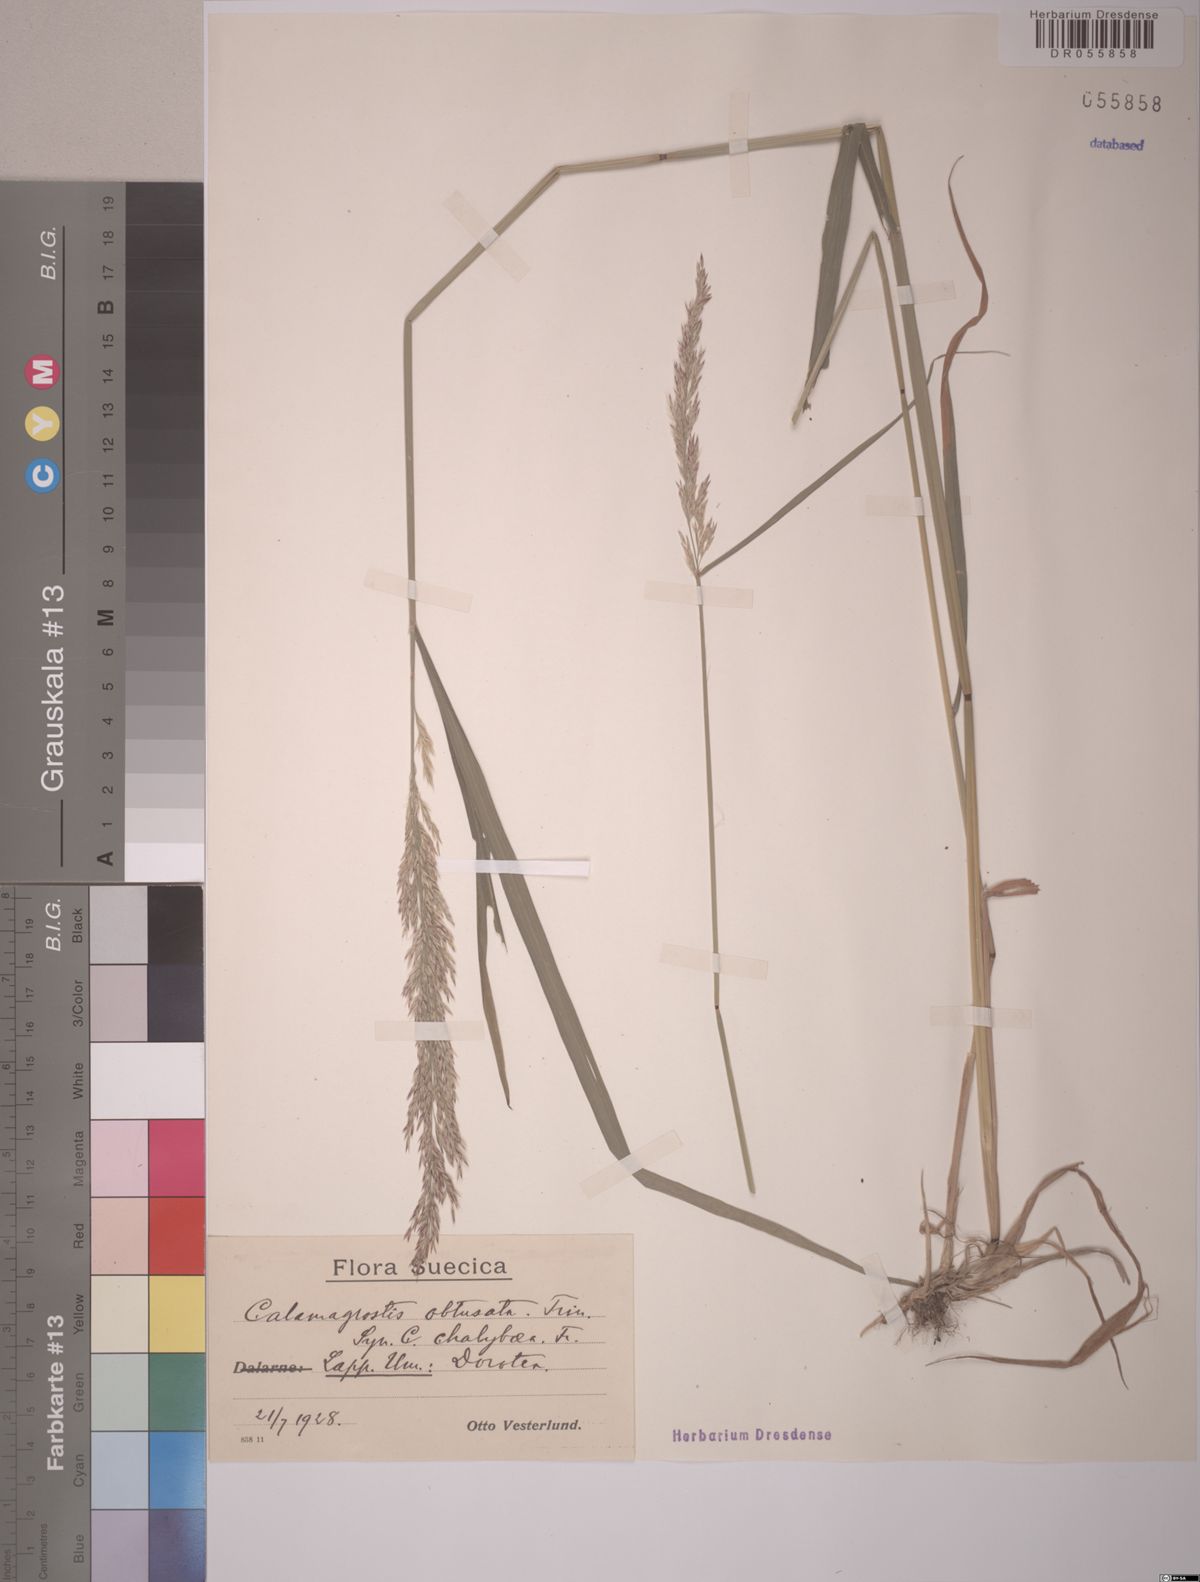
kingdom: Plantae
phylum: Tracheophyta
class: Liliopsida
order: Poales
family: Poaceae
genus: Calamagrostis
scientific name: Calamagrostis chalybaea
